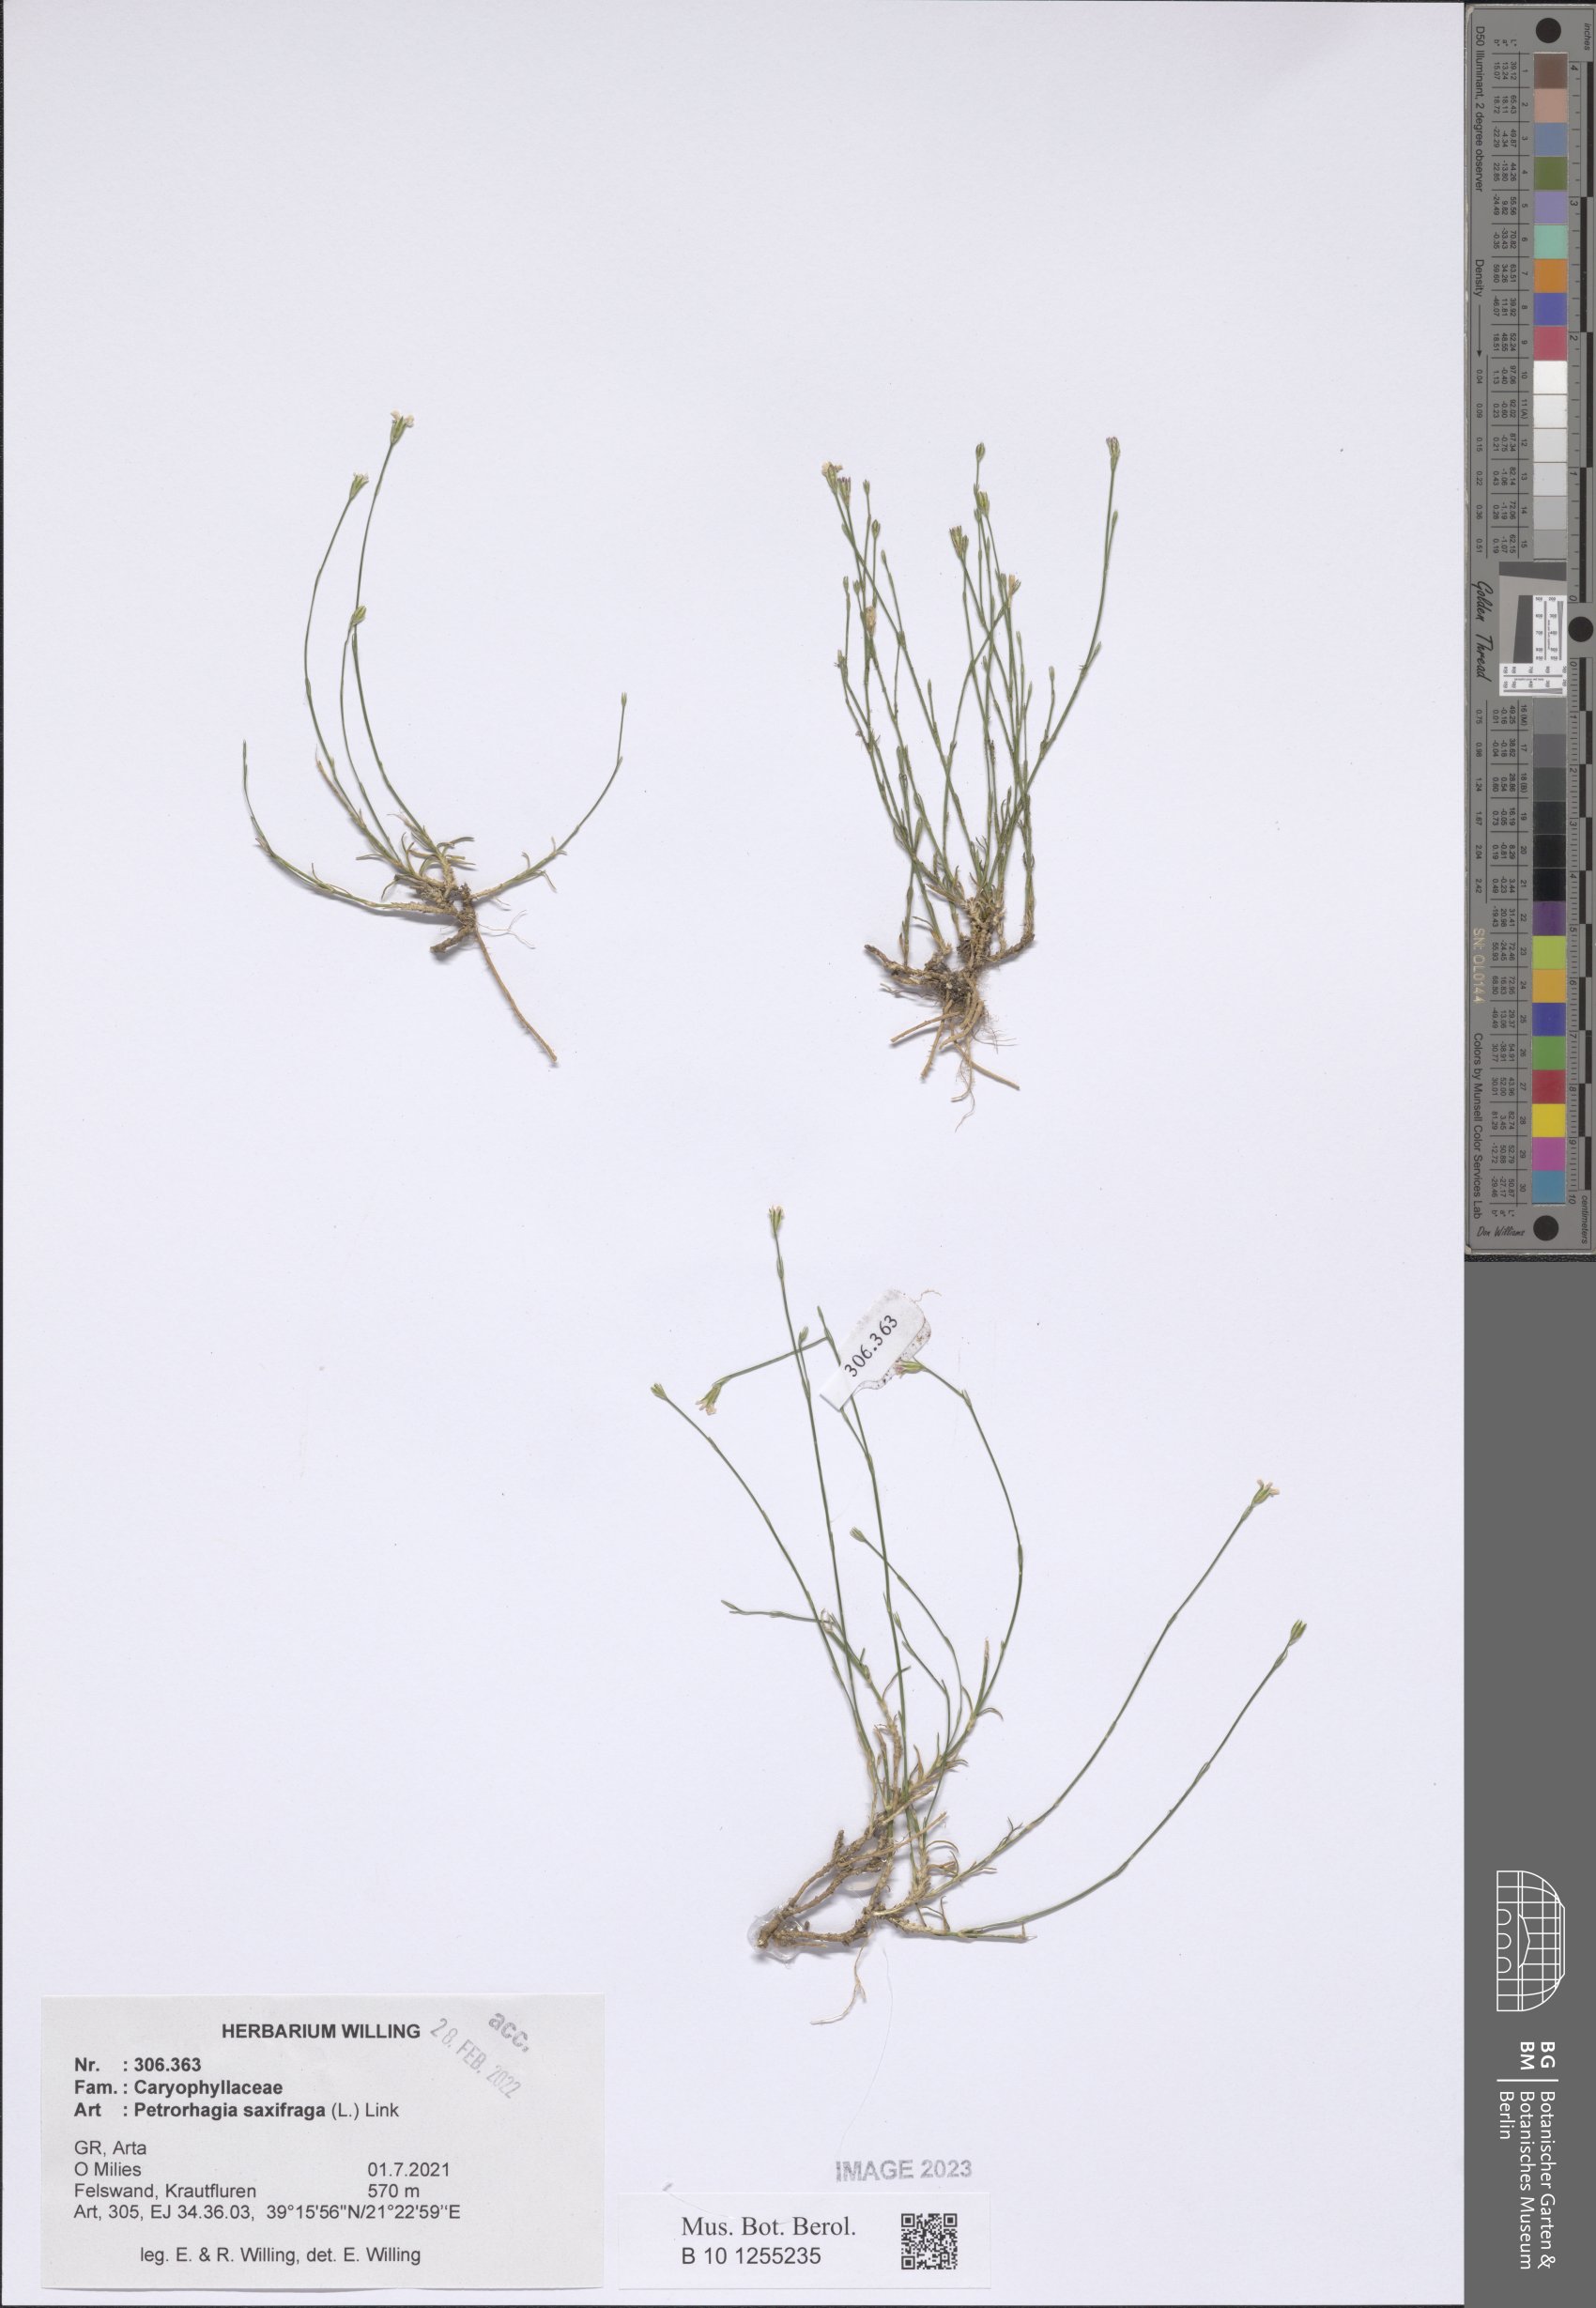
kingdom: Plantae
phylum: Tracheophyta
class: Magnoliopsida
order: Caryophyllales
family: Caryophyllaceae
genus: Petrorhagia
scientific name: Petrorhagia saxifraga
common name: Tunicflower
